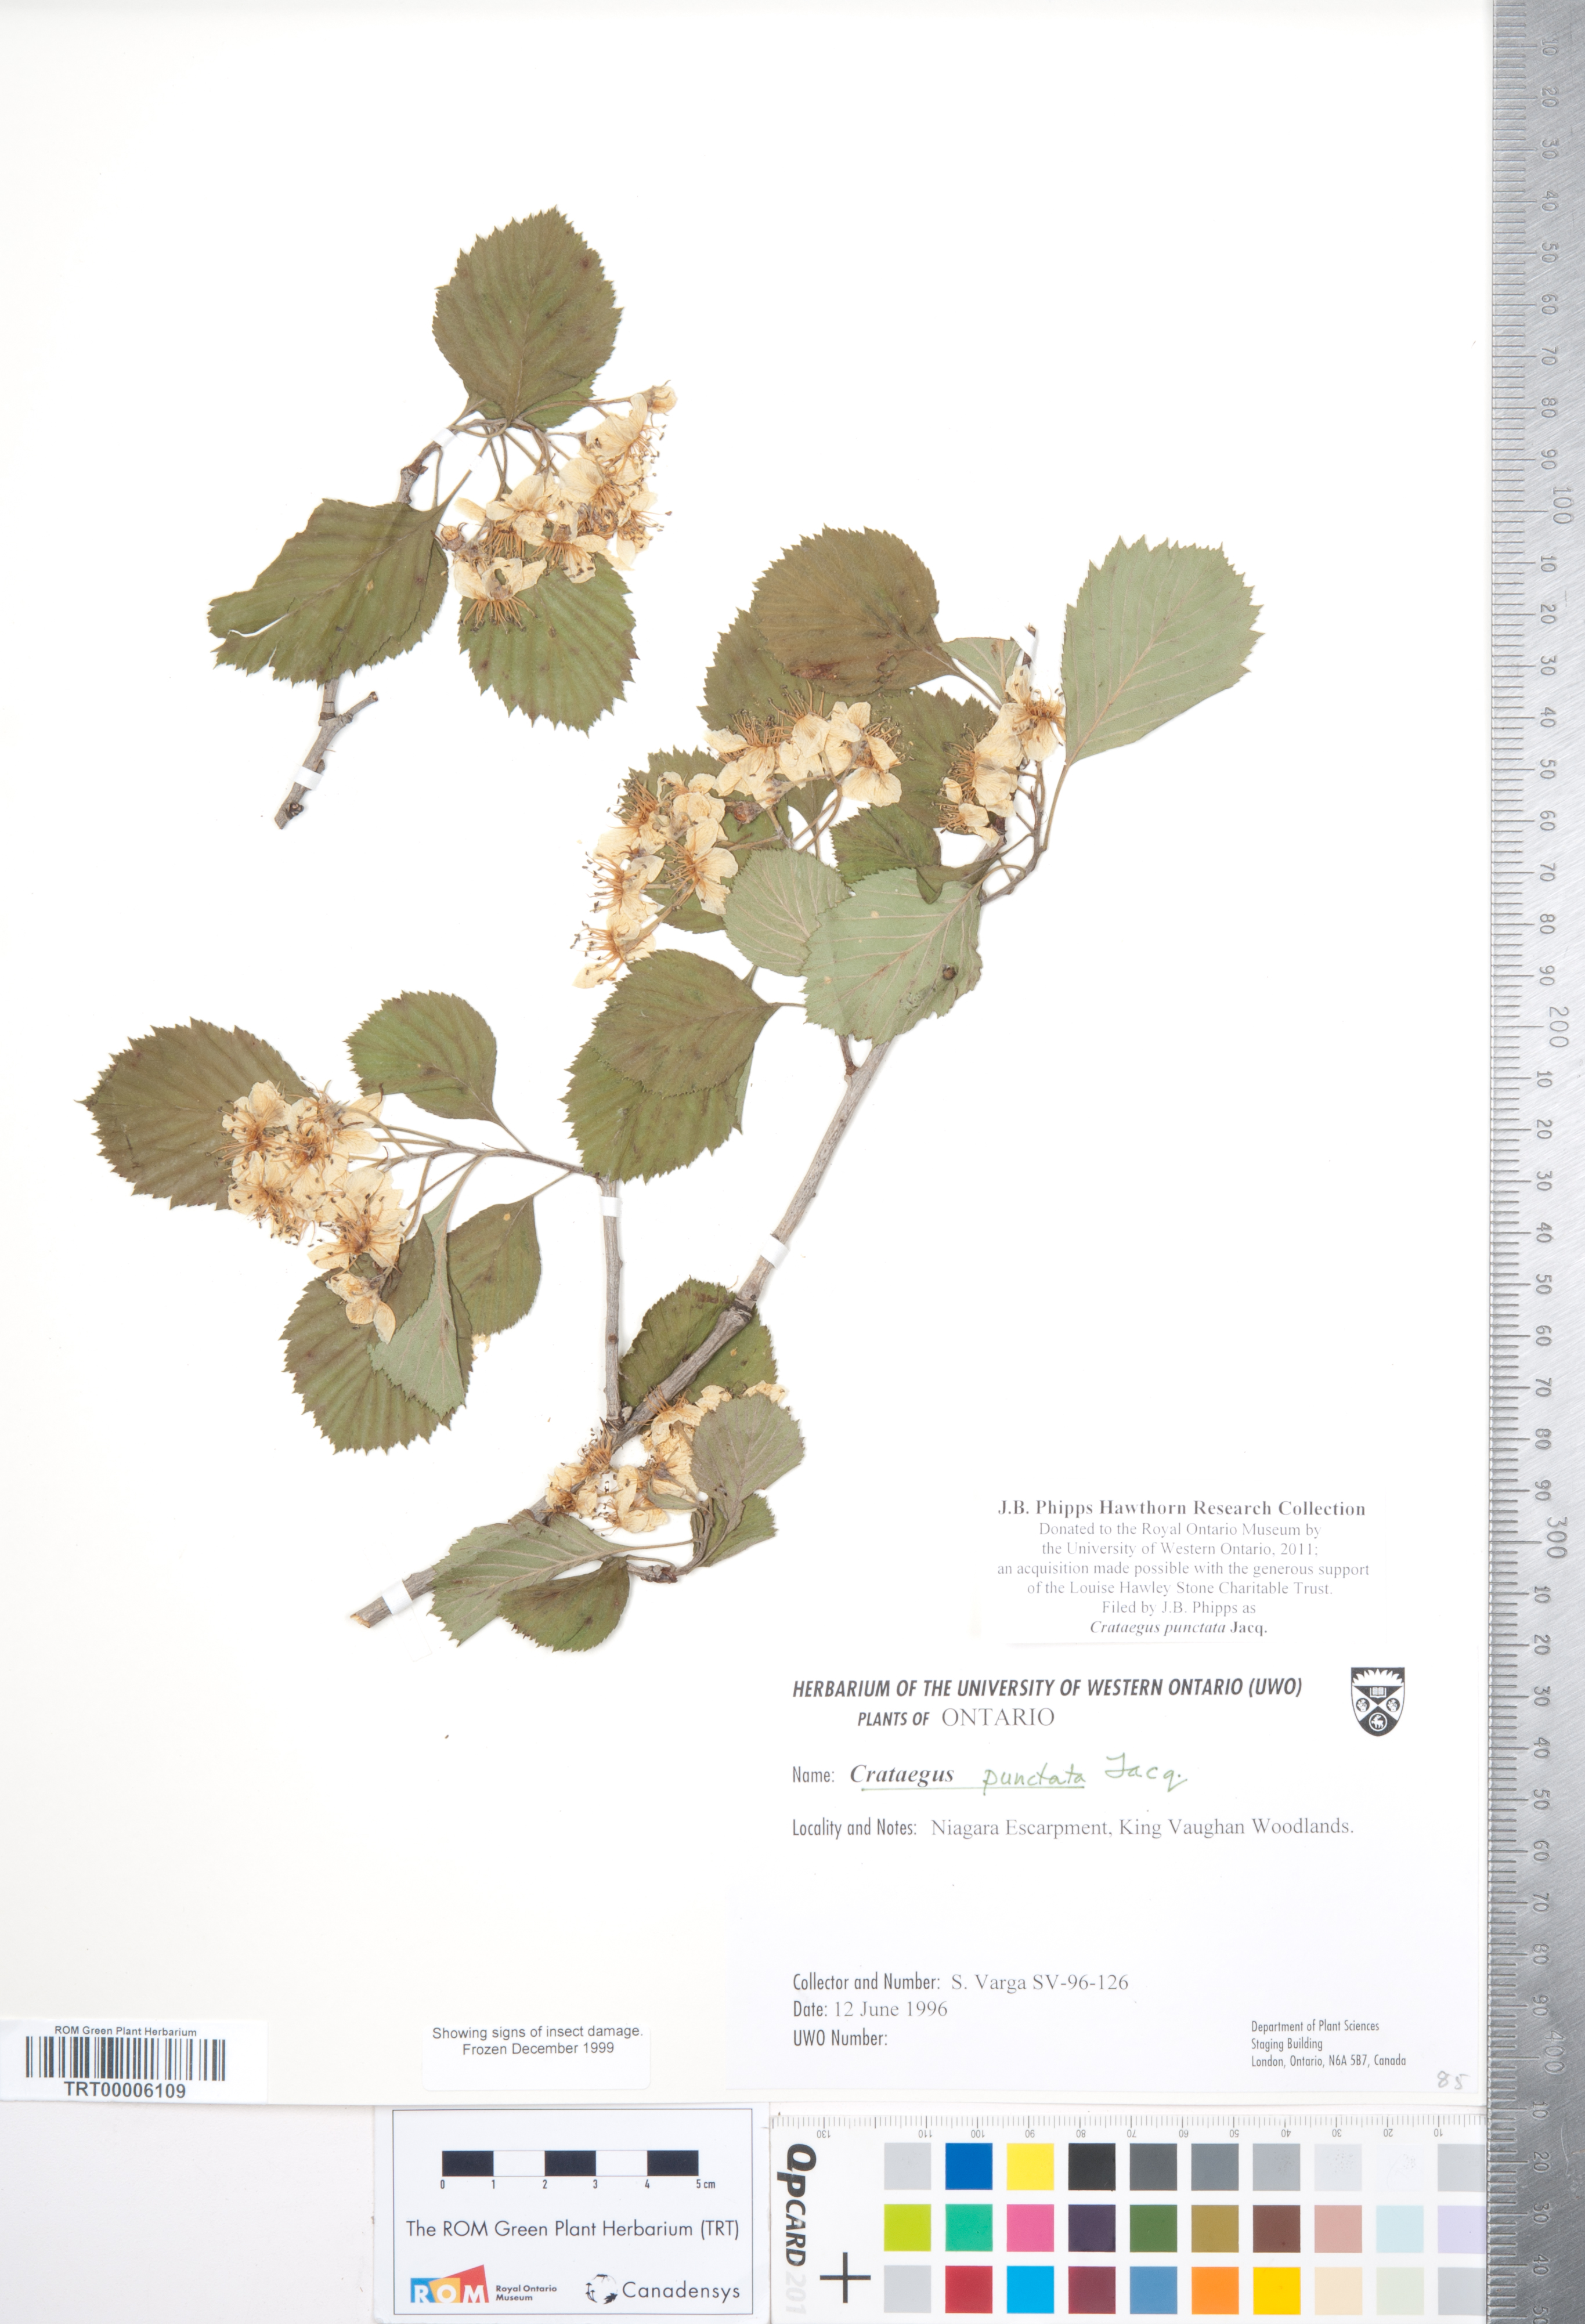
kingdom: Plantae
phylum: Tracheophyta
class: Magnoliopsida
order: Rosales
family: Rosaceae
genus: Crataegus
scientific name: Crataegus punctata
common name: Dotted hawthorn
